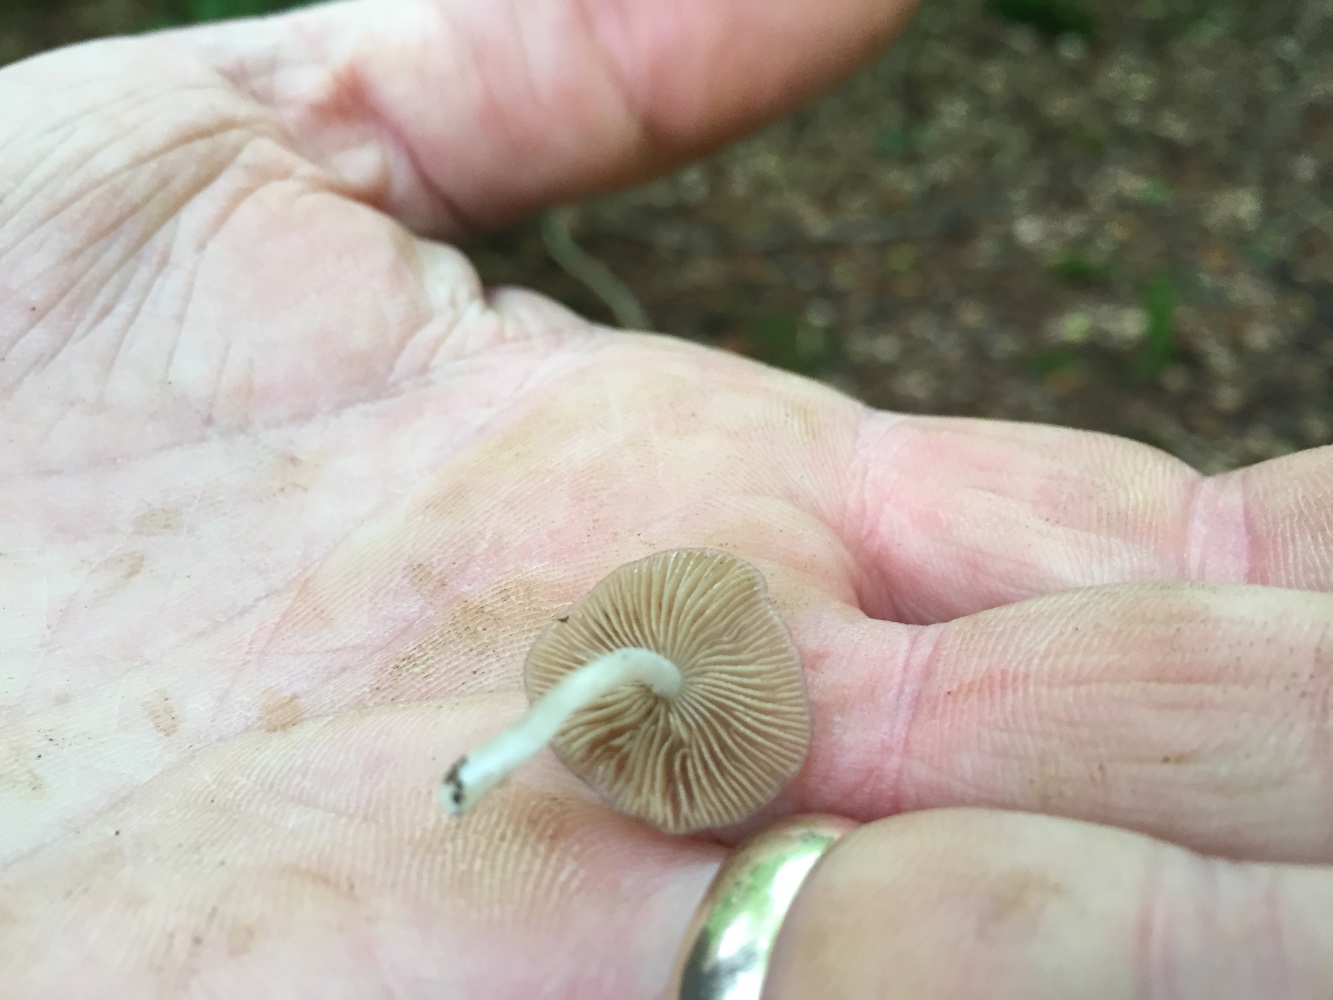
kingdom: Fungi
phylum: Basidiomycota
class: Agaricomycetes
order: Agaricales
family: Bolbitiaceae
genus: Bolbitius
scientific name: Bolbitius reticulatus
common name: netåret gulhat
